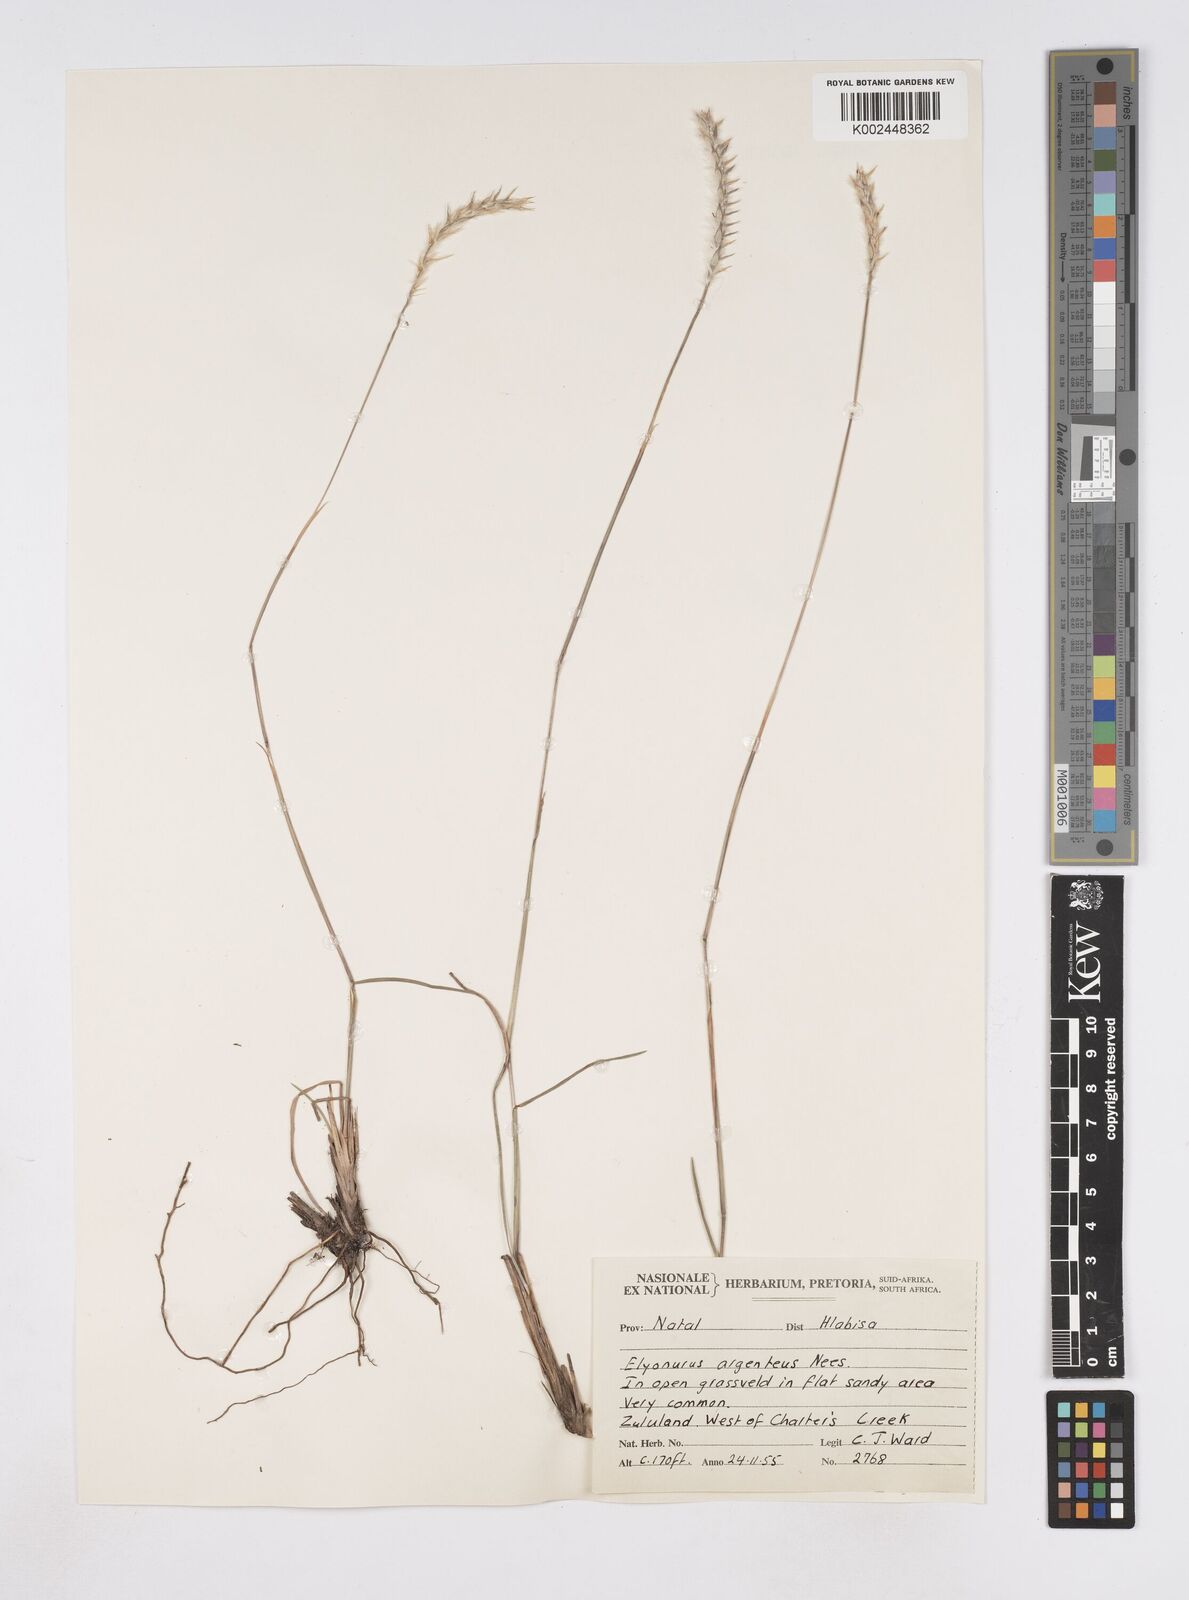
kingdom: Plantae
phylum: Tracheophyta
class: Liliopsida
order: Poales
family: Poaceae
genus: Elionurus
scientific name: Elionurus muticus
